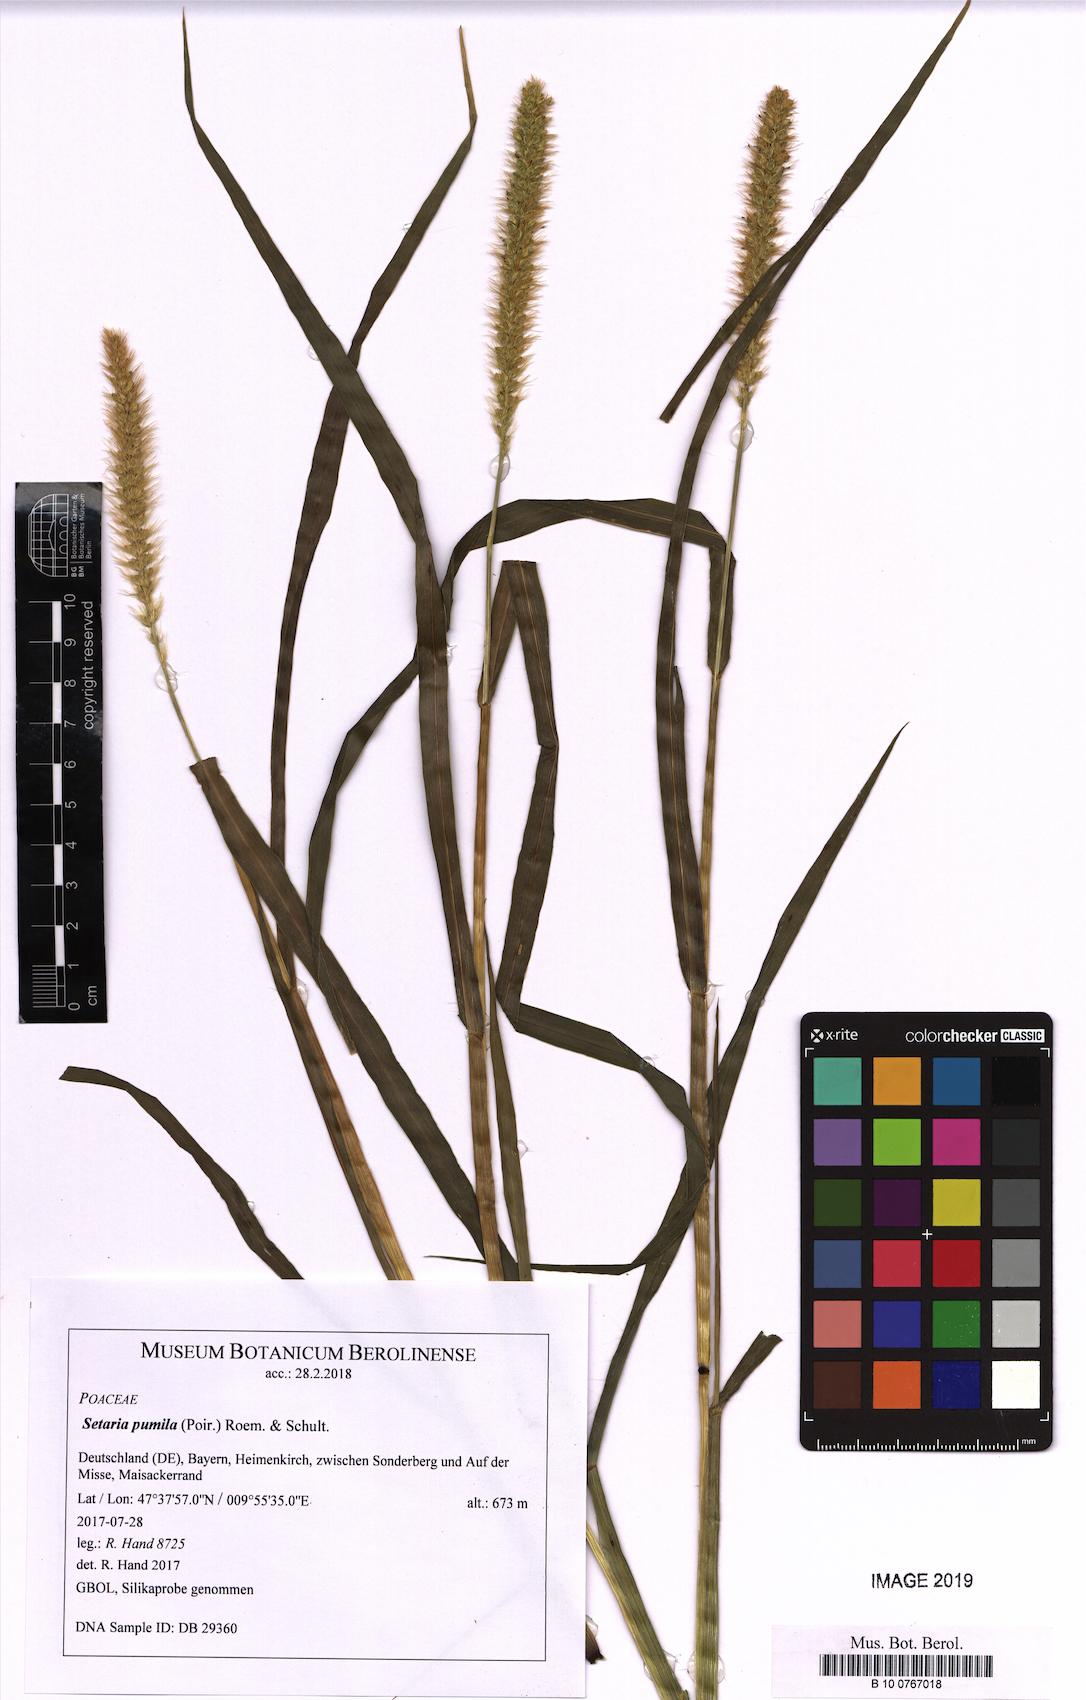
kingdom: Plantae
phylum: Tracheophyta
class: Liliopsida
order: Poales
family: Poaceae
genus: Setaria
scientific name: Setaria pumila
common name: Yellow bristle-grass
